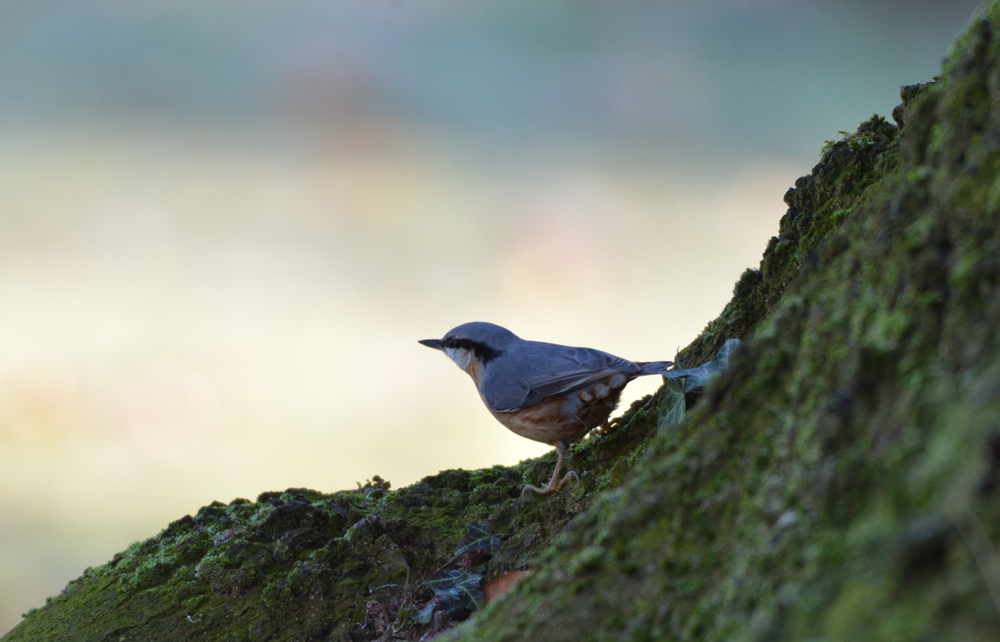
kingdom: Animalia
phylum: Chordata
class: Aves
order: Passeriformes
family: Sittidae
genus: Sitta
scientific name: Sitta europaea
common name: Eurasian nuthatch
